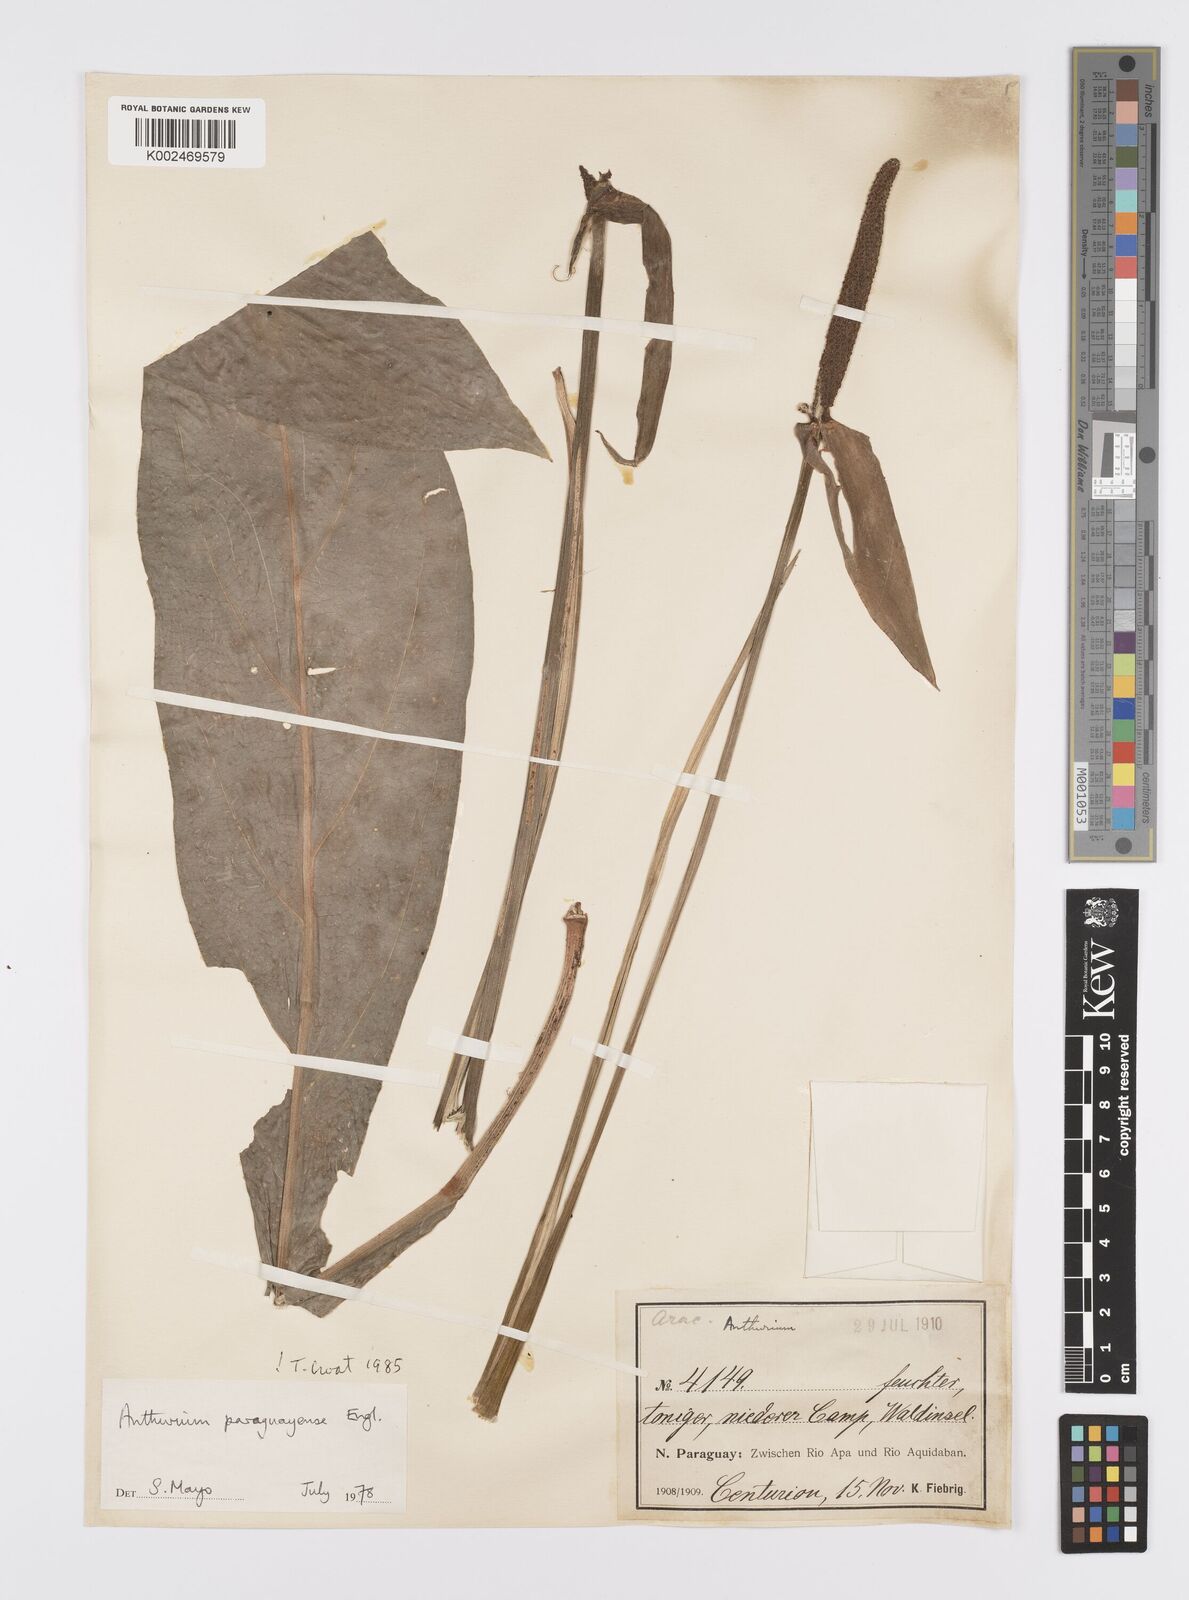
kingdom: Plantae
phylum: Tracheophyta
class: Liliopsida
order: Alismatales
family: Araceae
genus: Anthurium
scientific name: Anthurium paraguayense
